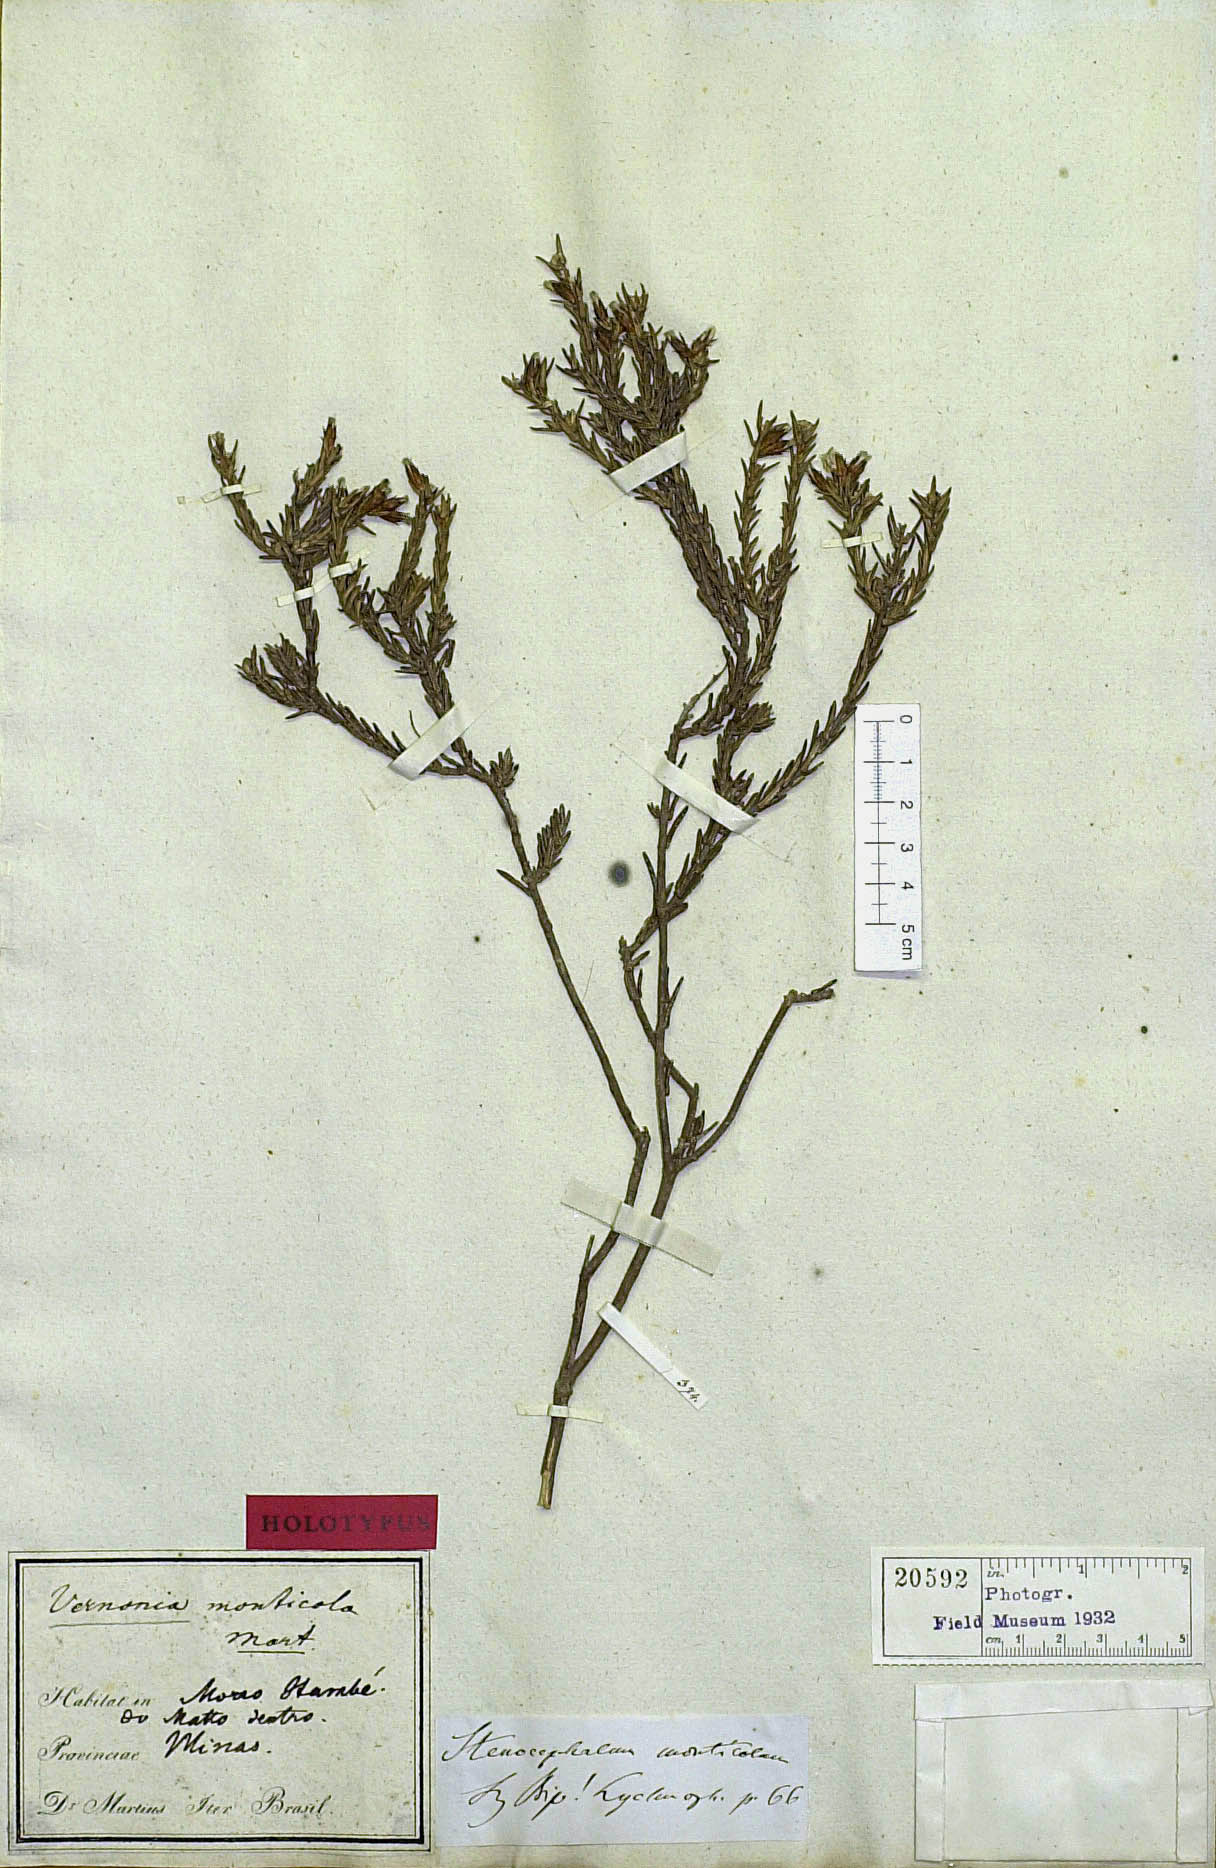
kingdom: Plantae
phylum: Tracheophyta
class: Magnoliopsida
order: Asterales
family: Asteraceae
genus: Stenocephalum
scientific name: Stenocephalum apiculatum
